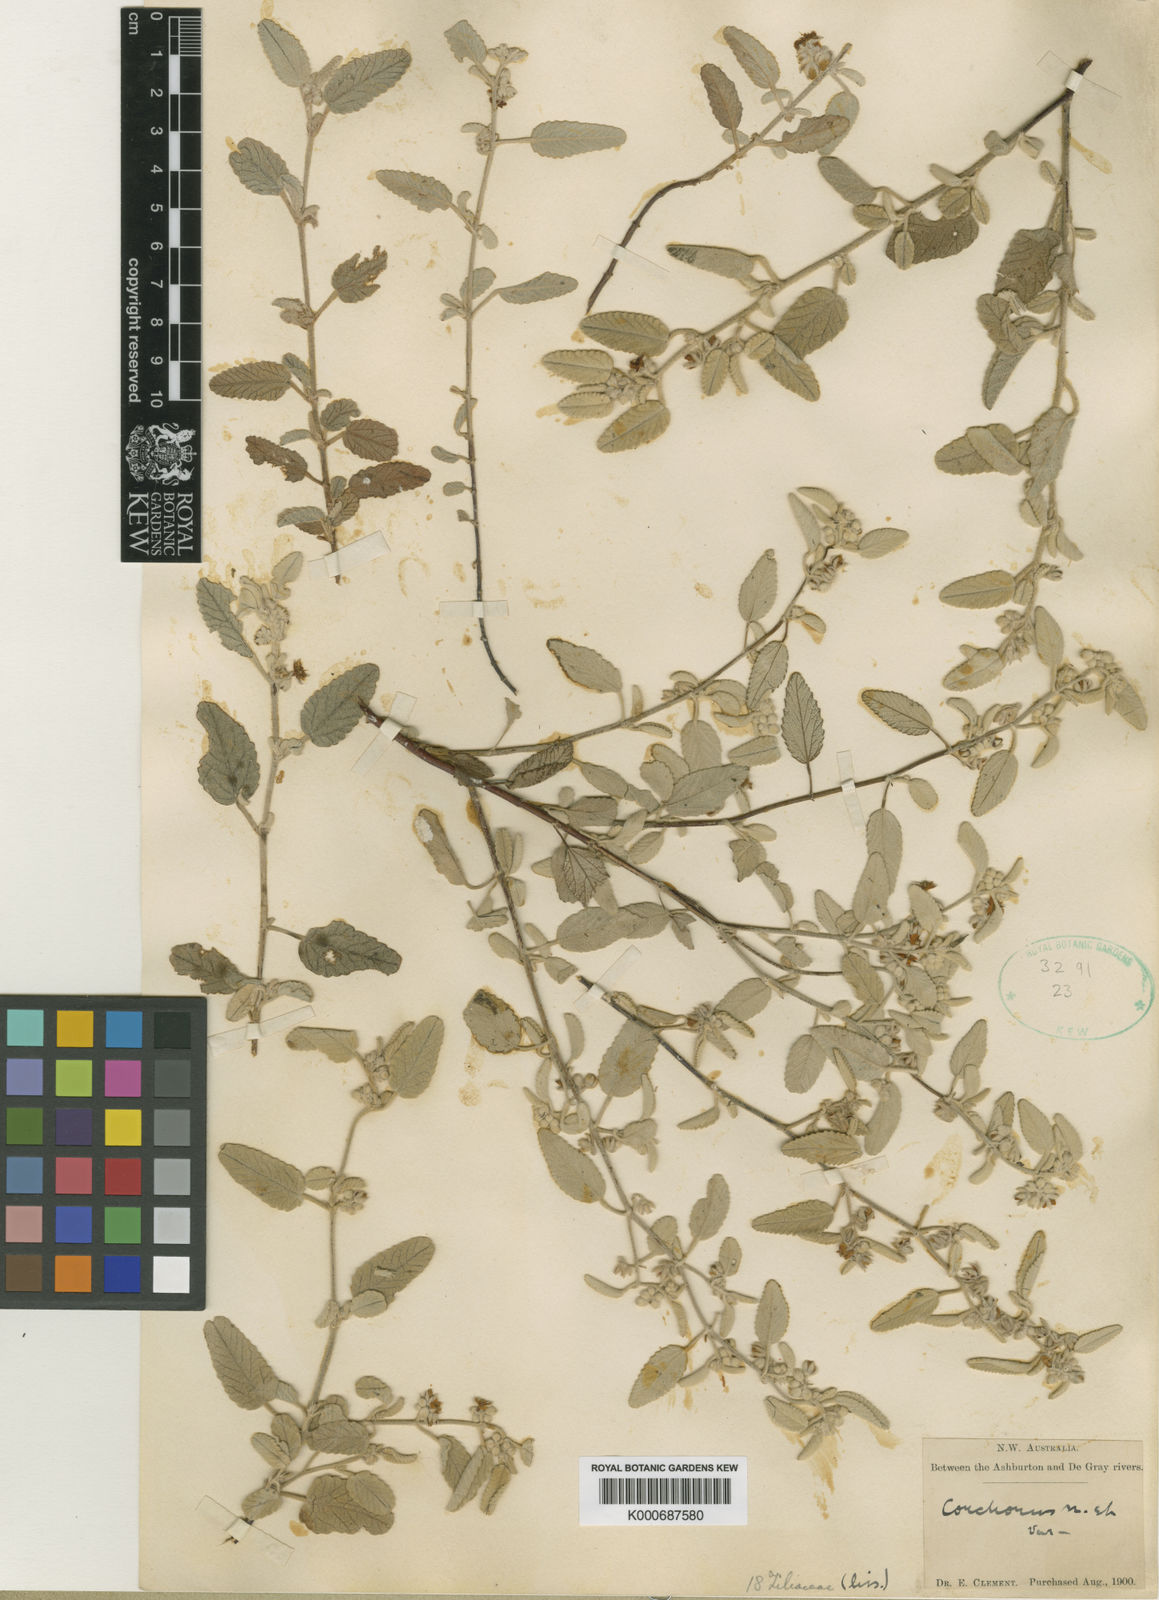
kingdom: Plantae
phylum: Tracheophyta
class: Magnoliopsida
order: Malvales
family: Malvaceae
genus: Corchorus
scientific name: Corchorus parviflorus
